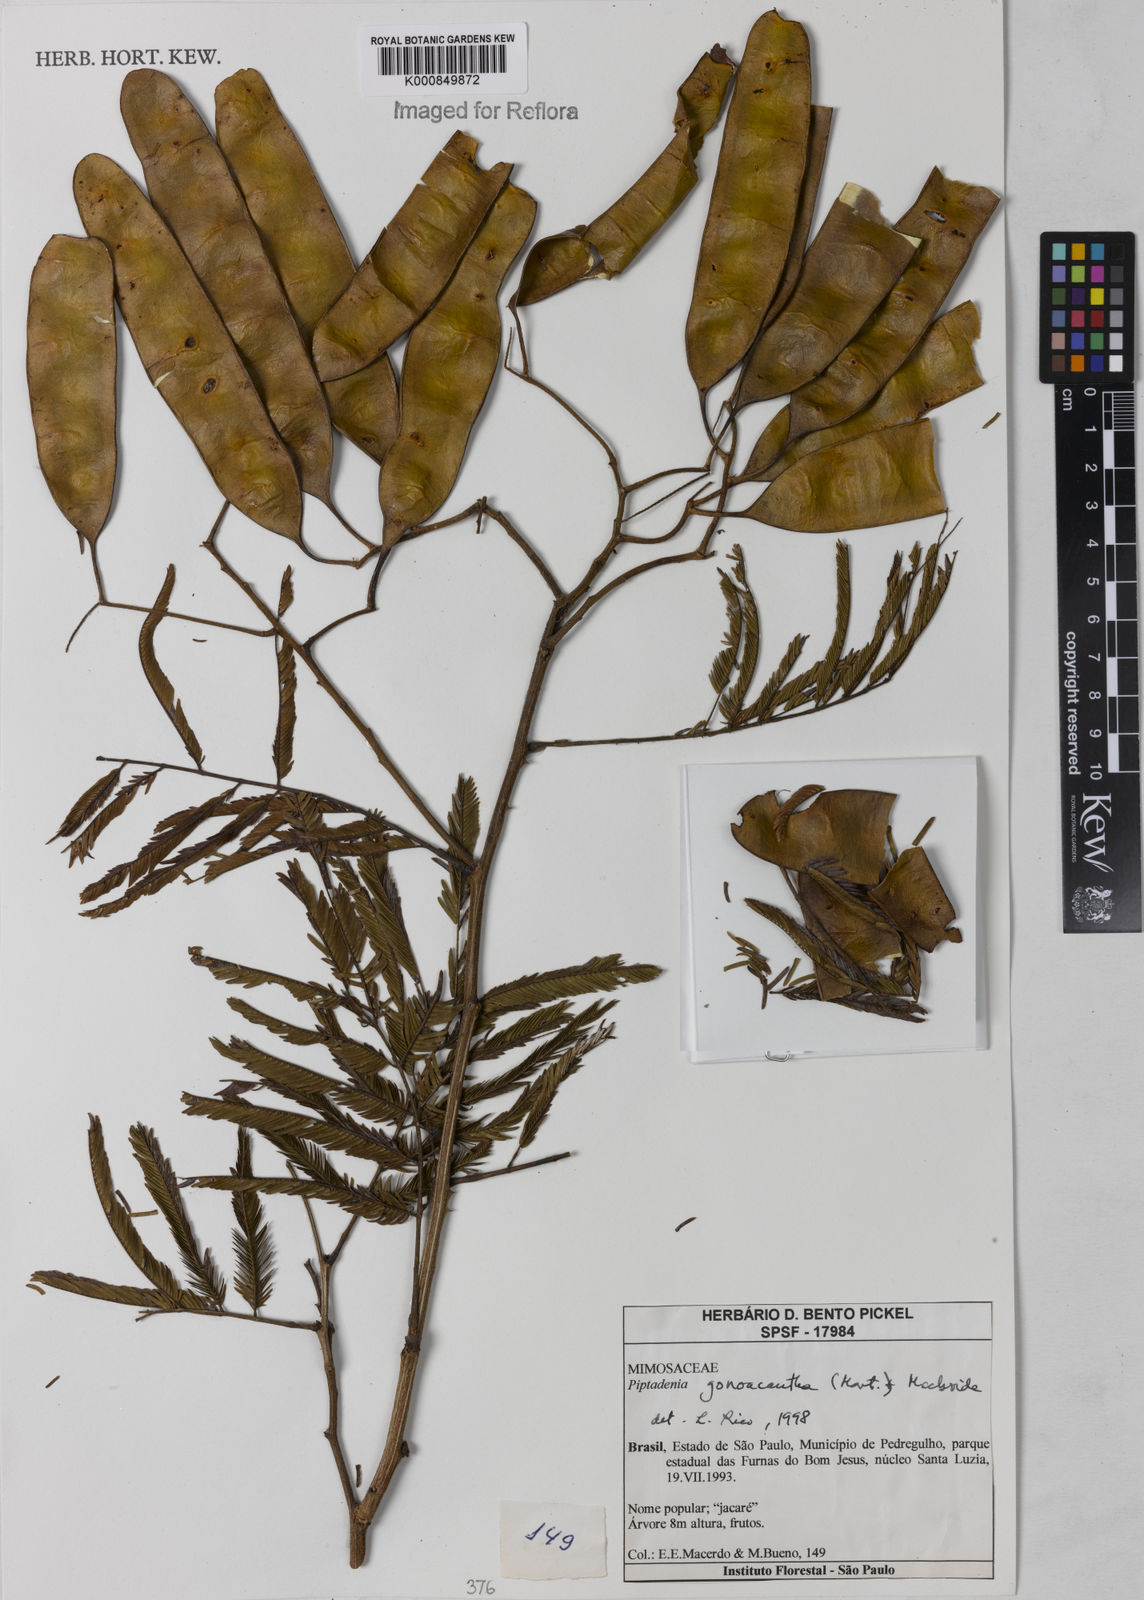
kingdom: Plantae
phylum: Tracheophyta
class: Magnoliopsida
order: Fabales
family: Fabaceae
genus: Piptadenia
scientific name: Piptadenia gonoacantha
